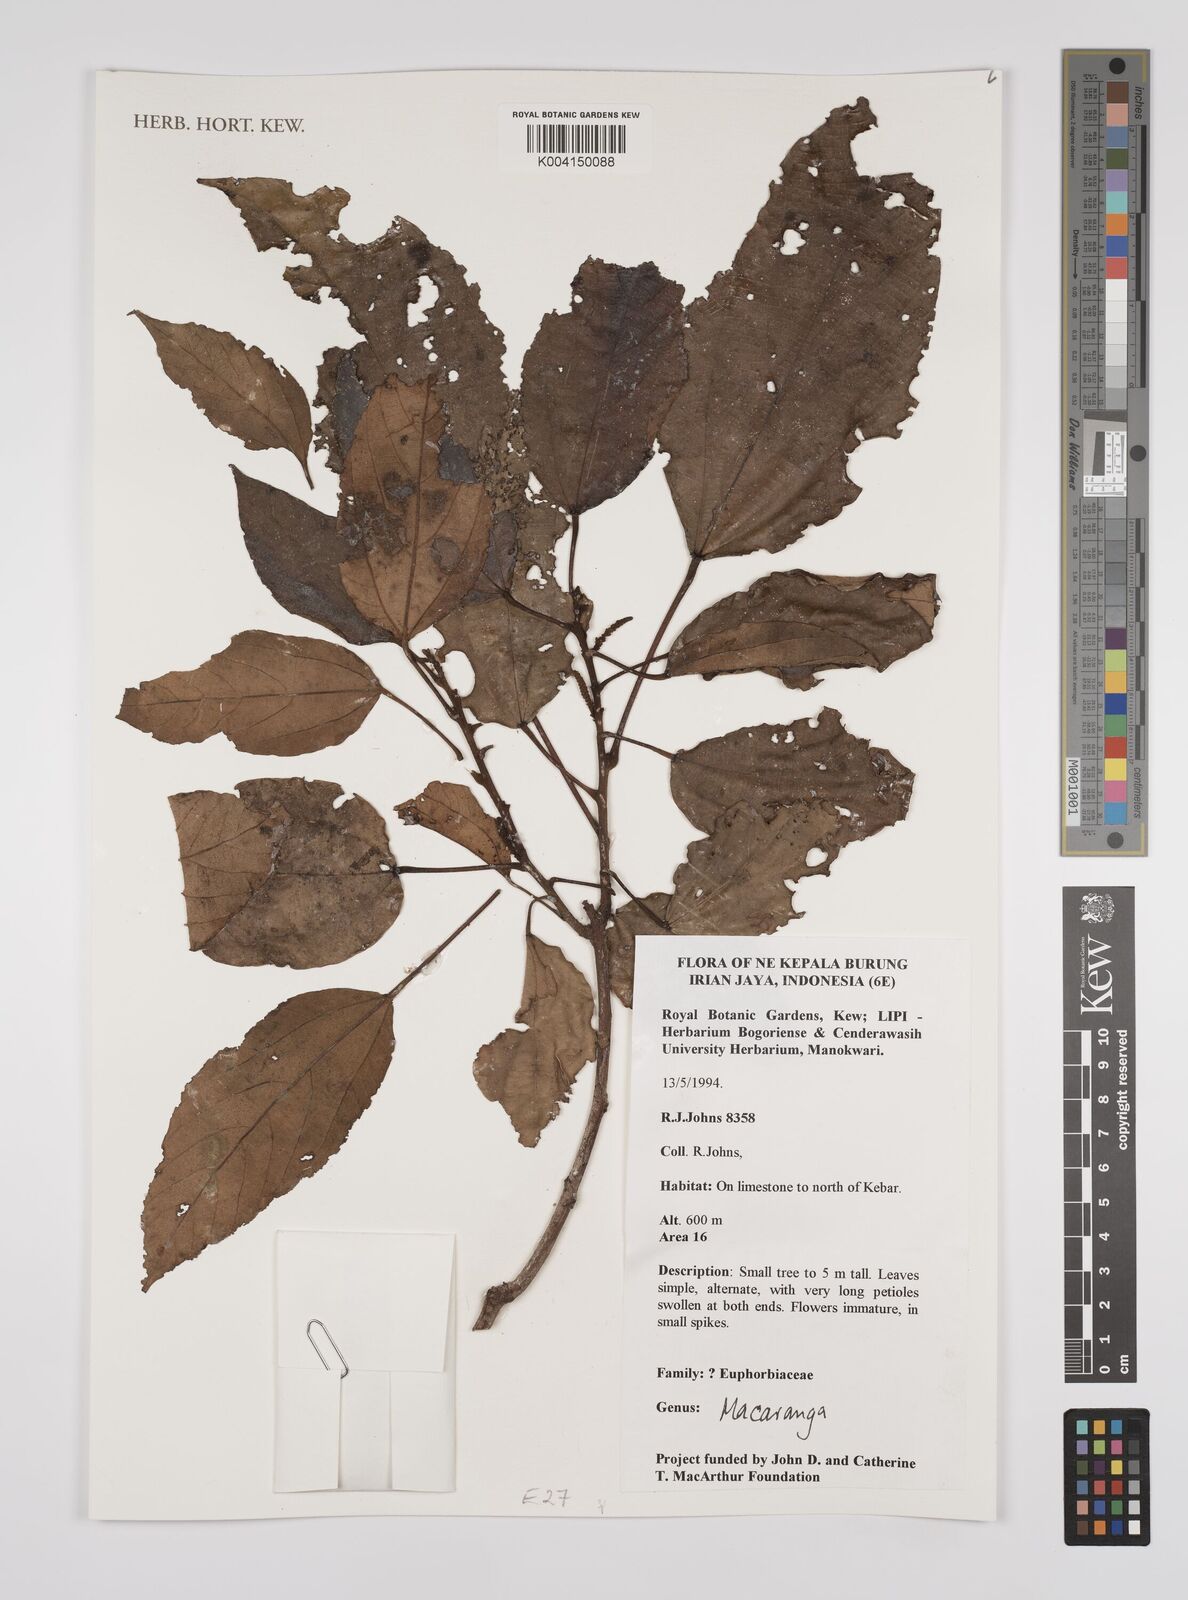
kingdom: Plantae
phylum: Tracheophyta
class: Magnoliopsida
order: Malpighiales
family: Euphorbiaceae
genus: Macaranga
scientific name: Macaranga
